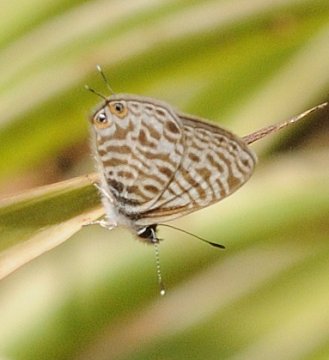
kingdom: Animalia
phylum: Arthropoda
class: Insecta
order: Lepidoptera
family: Lycaenidae
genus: Leptotes
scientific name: Leptotes pirithous
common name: Lang's Short-tailed Blue
